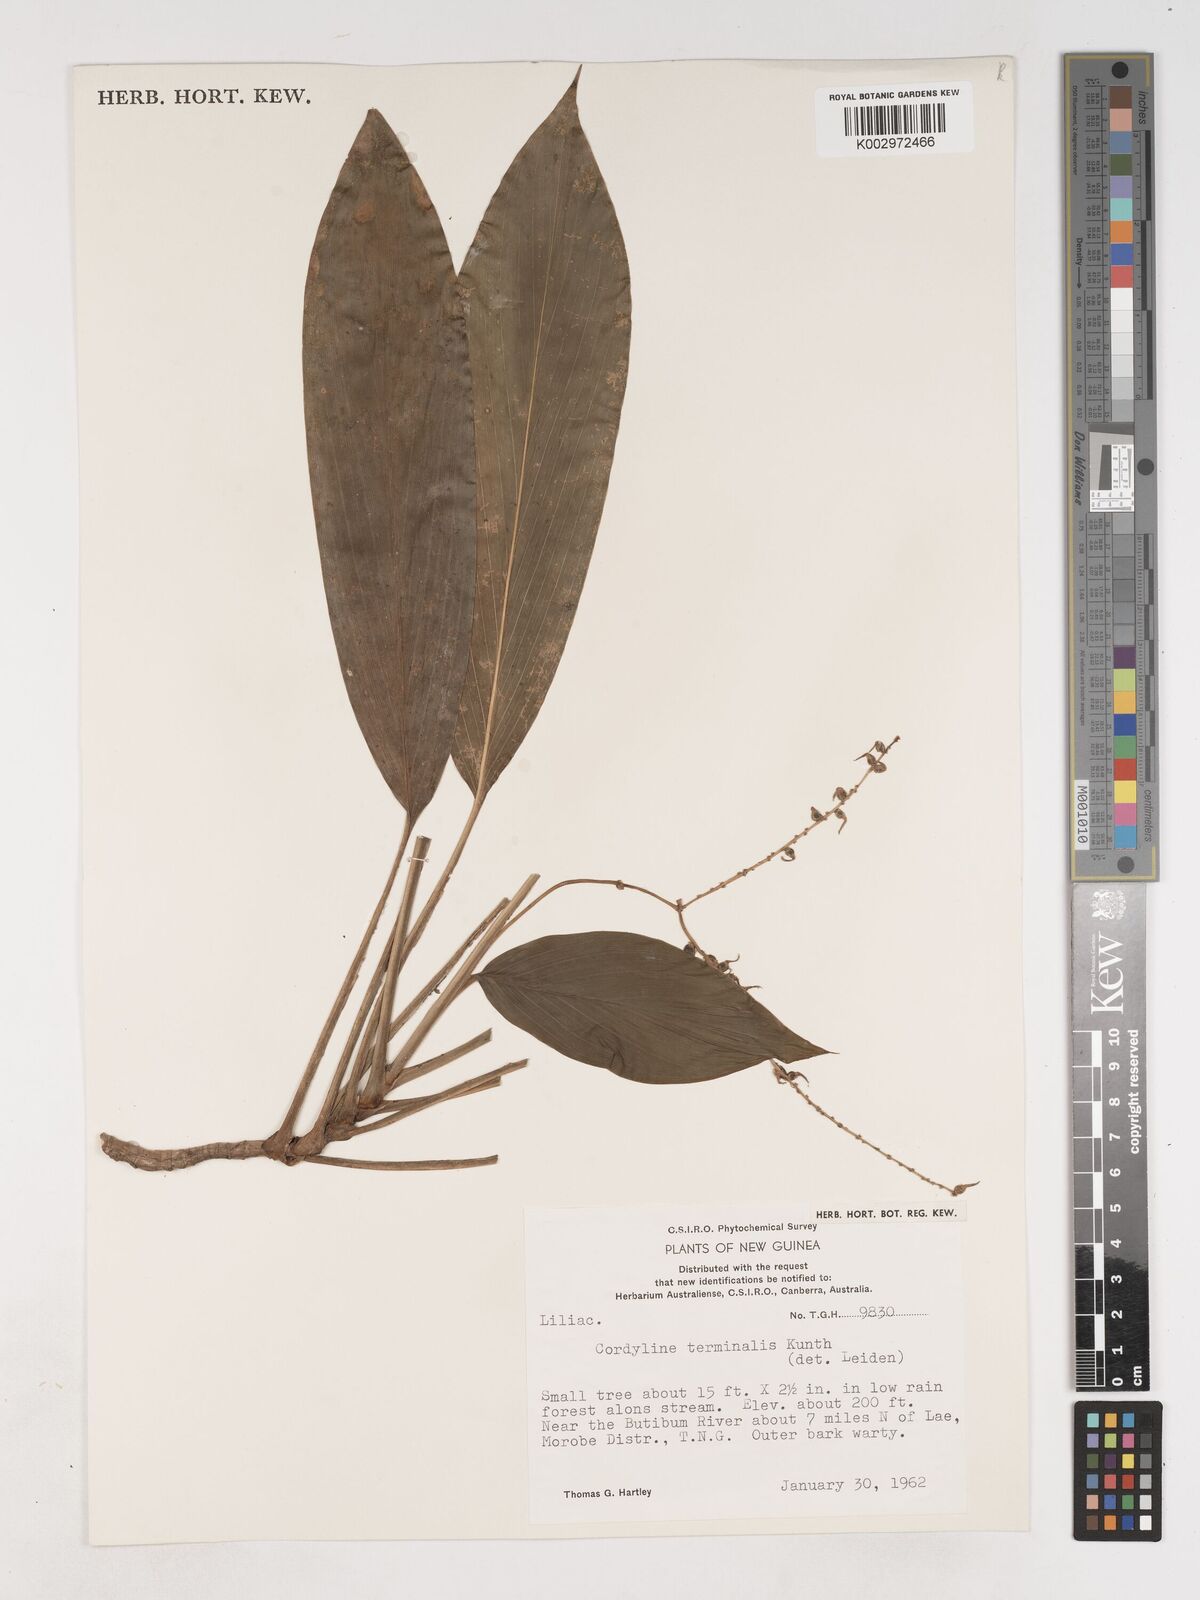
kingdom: Plantae
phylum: Tracheophyta
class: Liliopsida
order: Asparagales
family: Asparagaceae
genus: Cordyline
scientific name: Cordyline fruticosa
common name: Good-luck-plant
